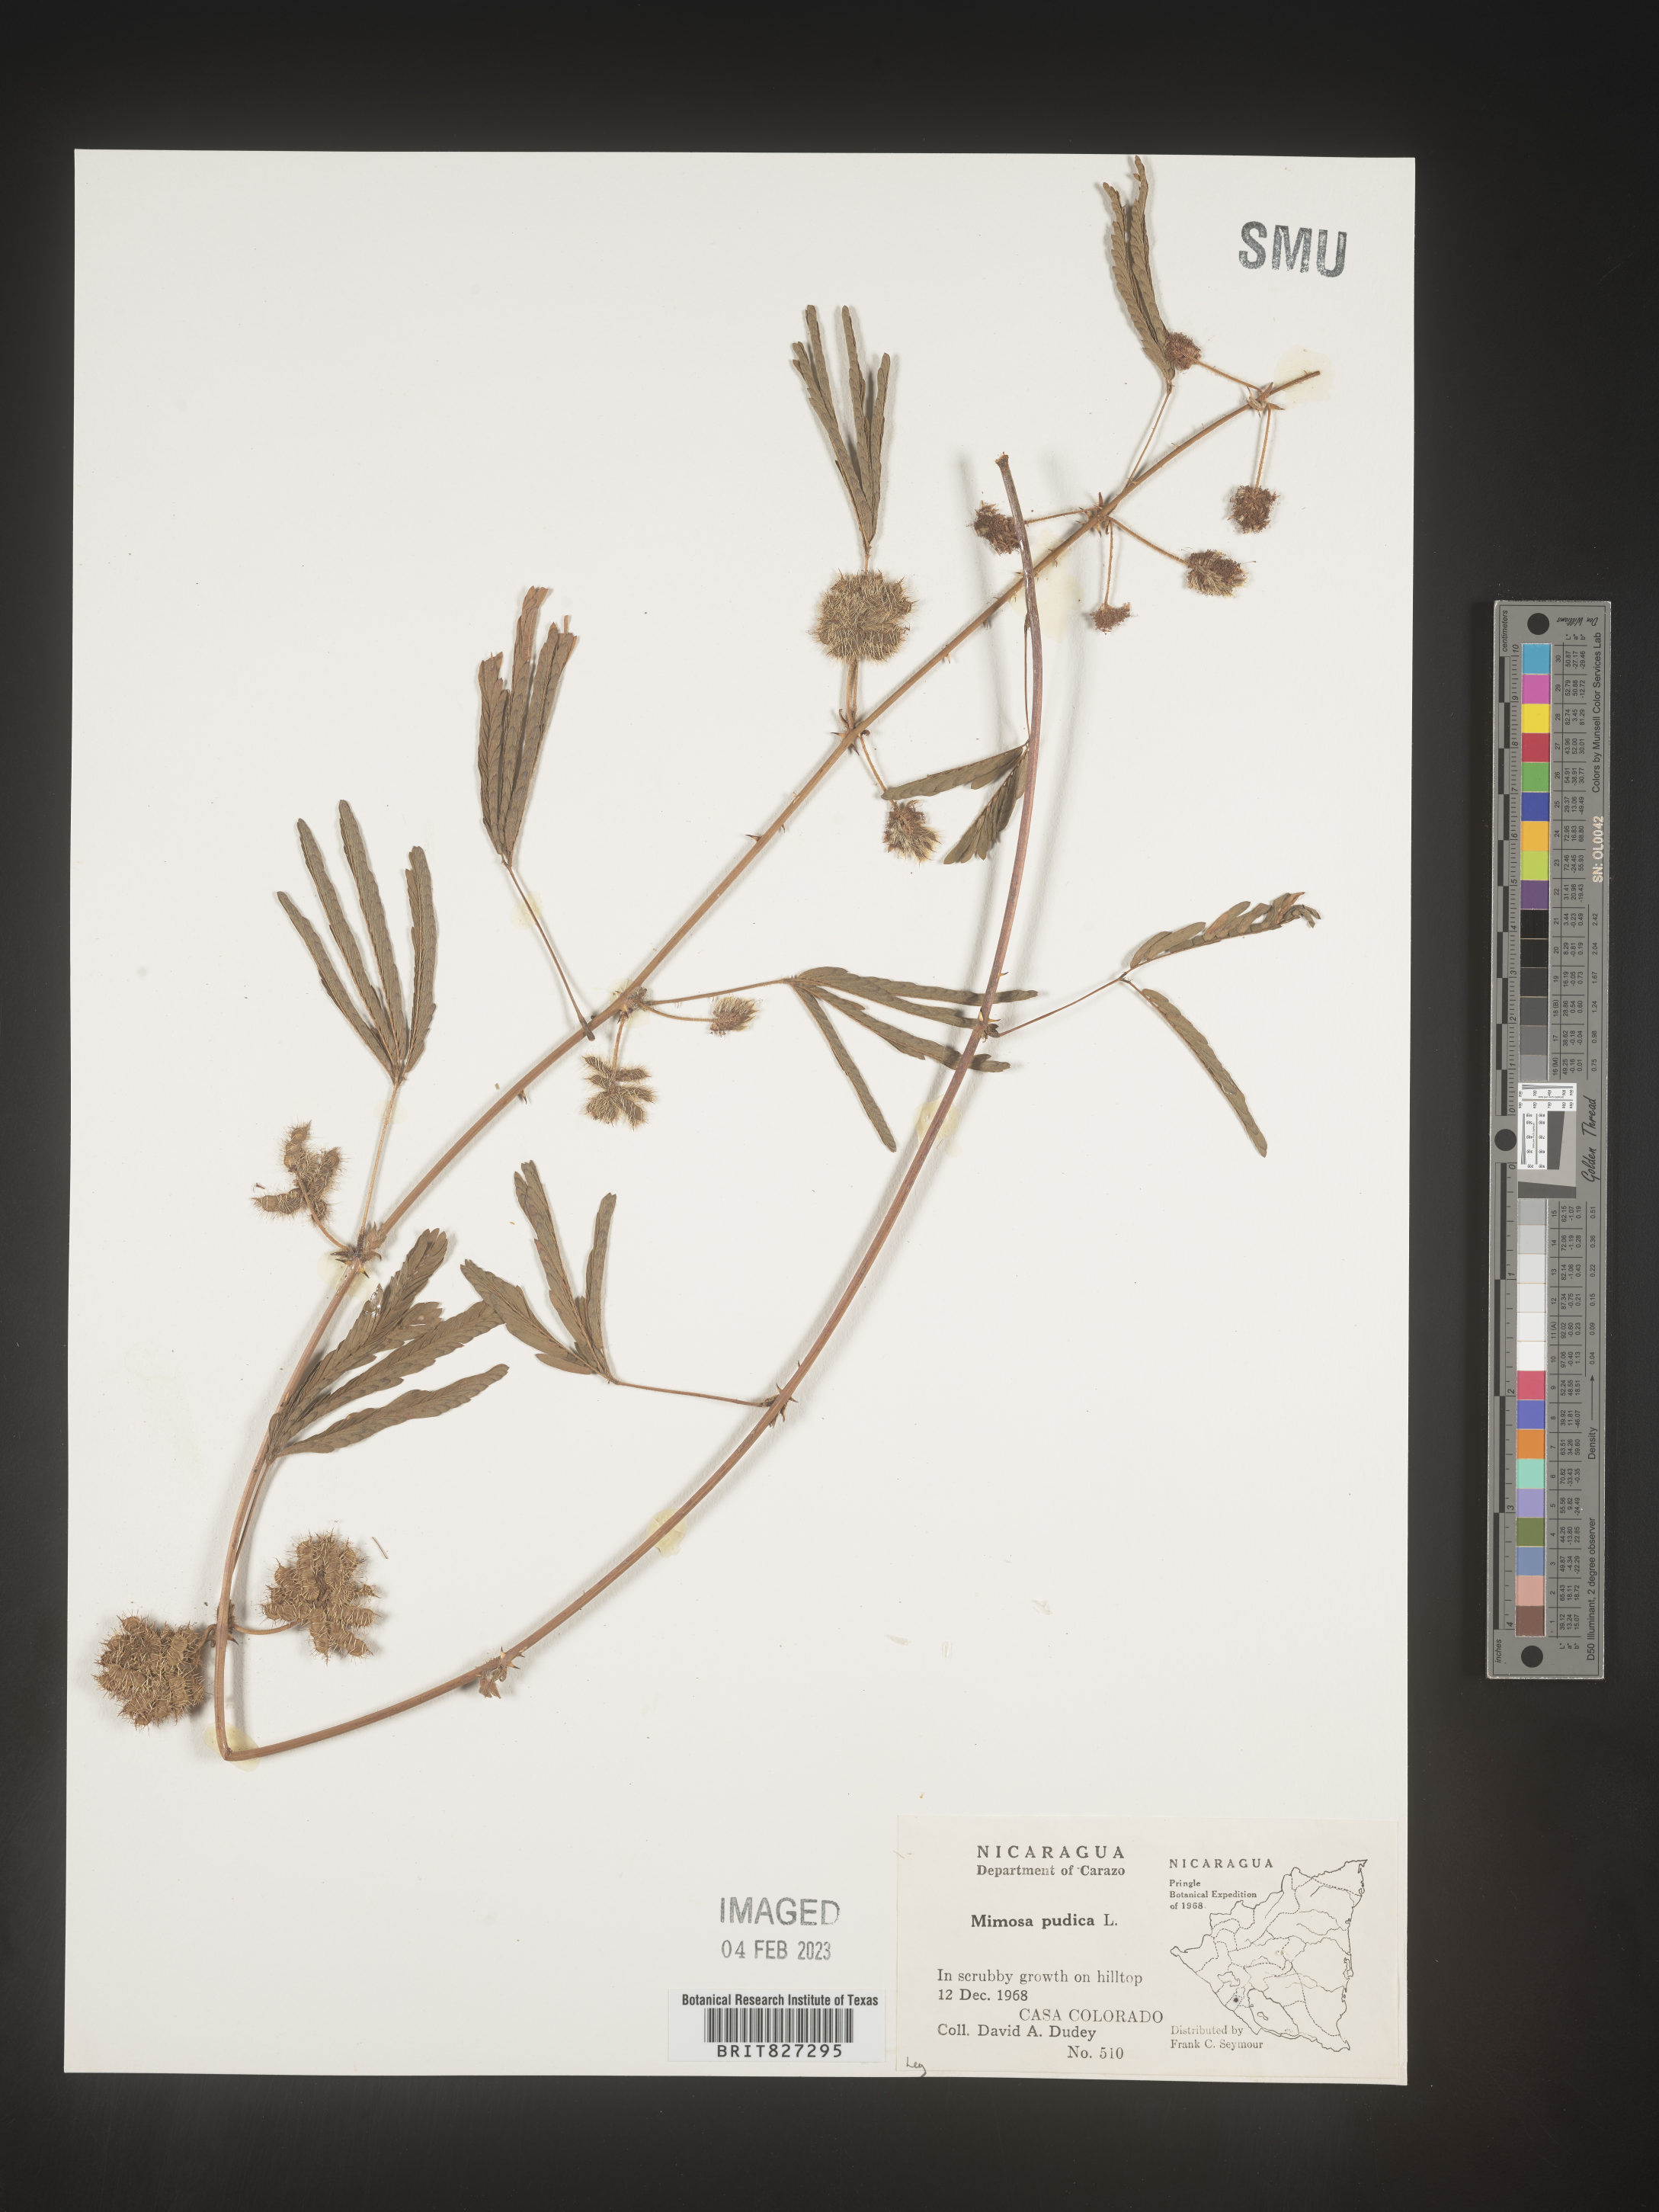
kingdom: Plantae
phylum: Tracheophyta
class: Magnoliopsida
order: Fabales
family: Fabaceae
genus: Mimosa
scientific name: Mimosa
